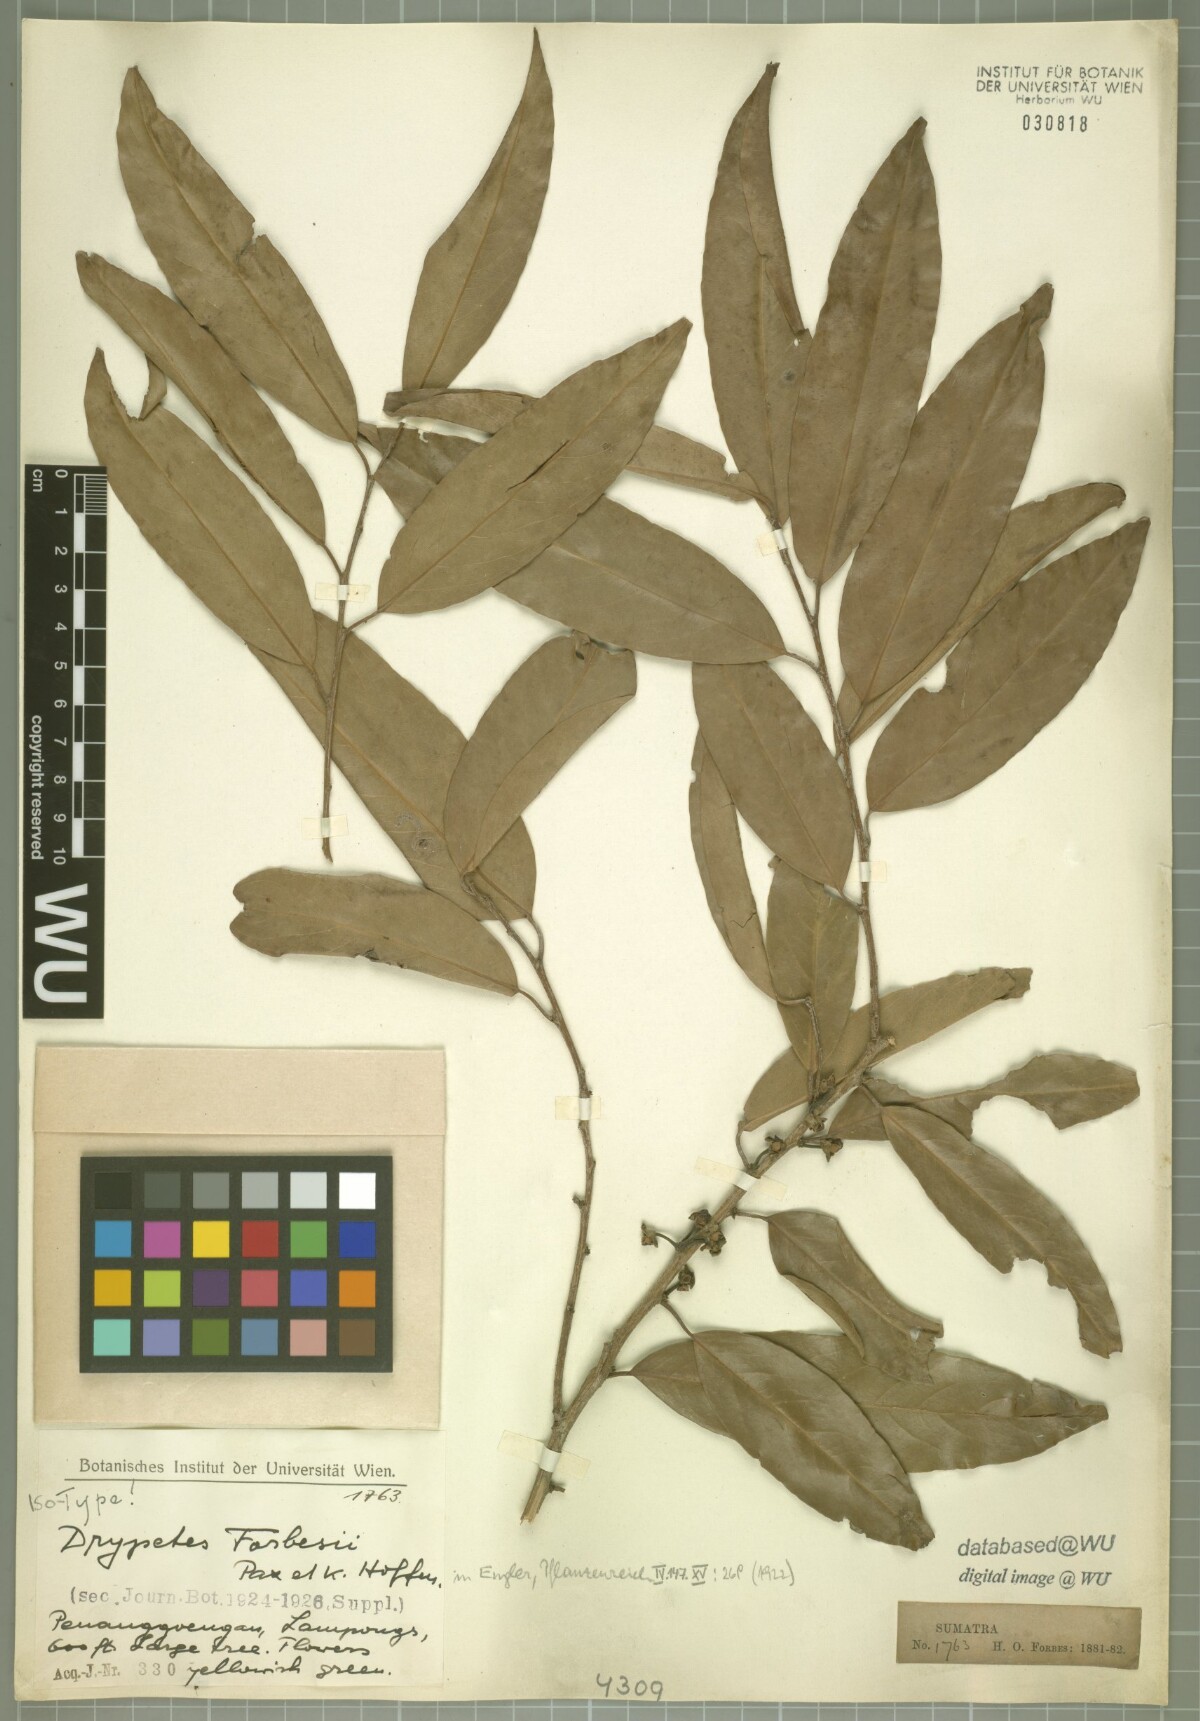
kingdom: Plantae
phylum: Tracheophyta
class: Magnoliopsida
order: Malpighiales
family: Putranjivaceae
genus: Drypetes
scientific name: Drypetes forbesii
